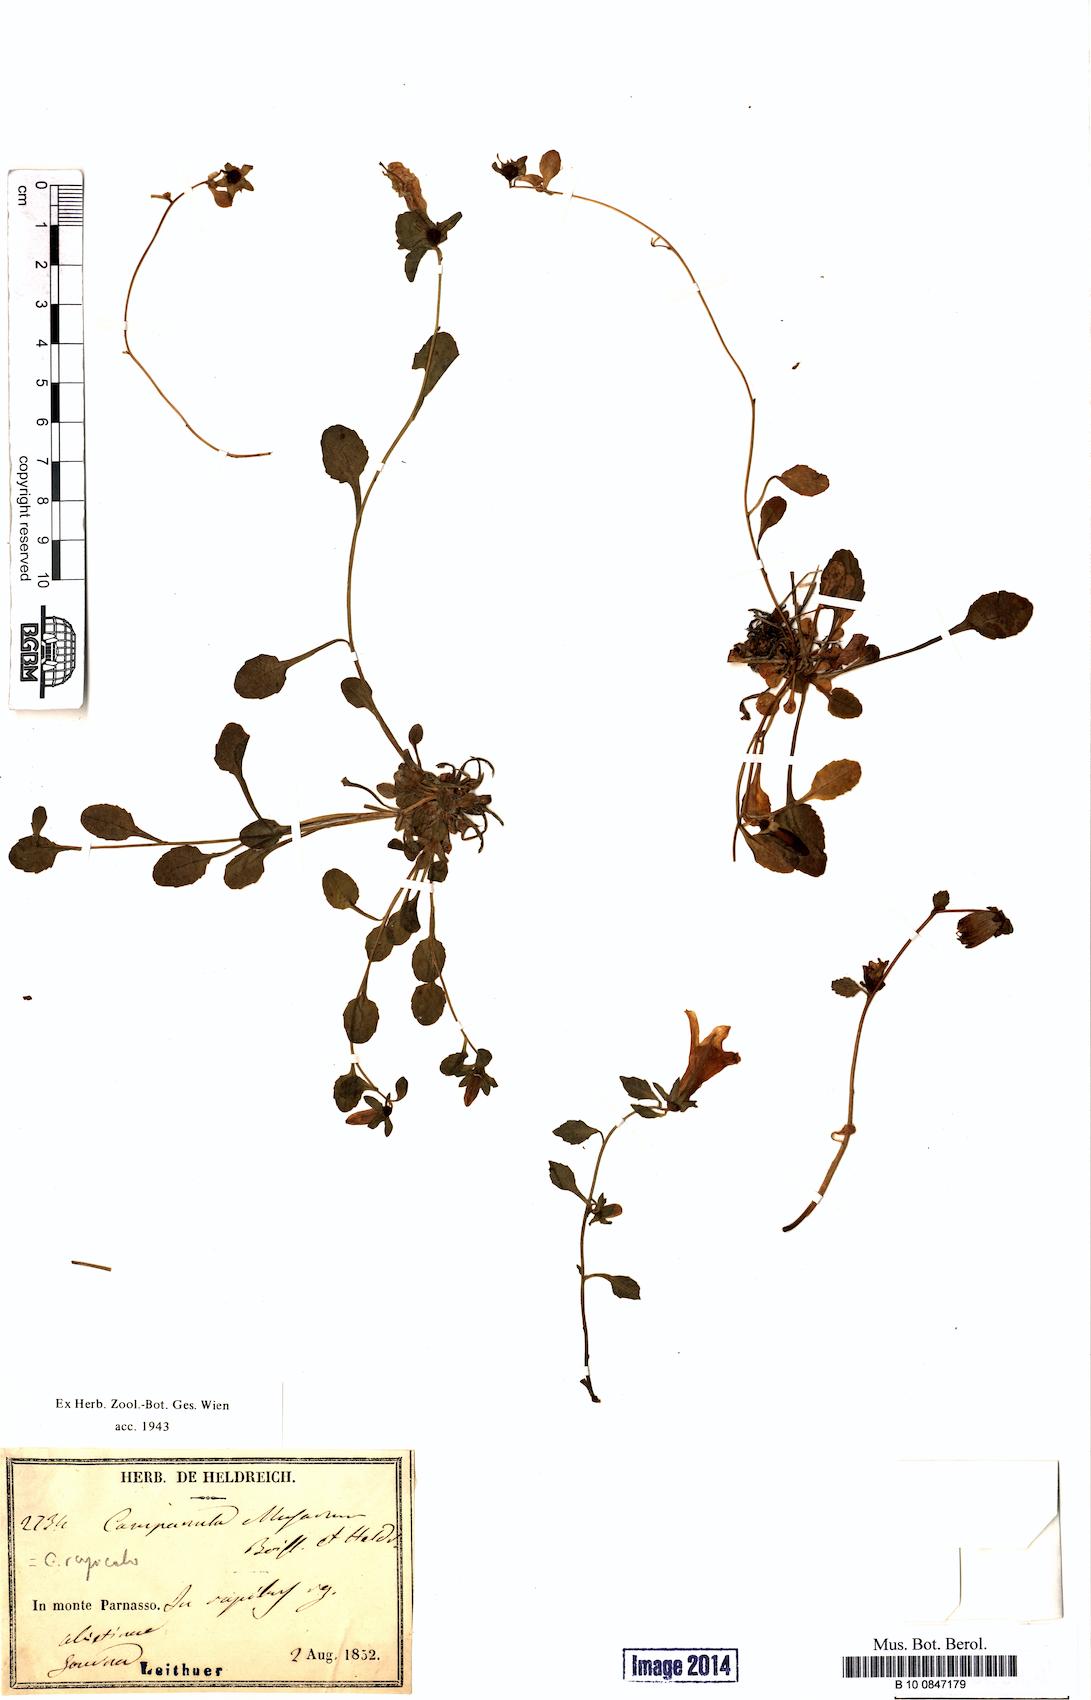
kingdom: Plantae
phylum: Tracheophyta
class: Magnoliopsida
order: Asterales
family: Campanulaceae
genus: Campanula
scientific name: Campanula rupicola
